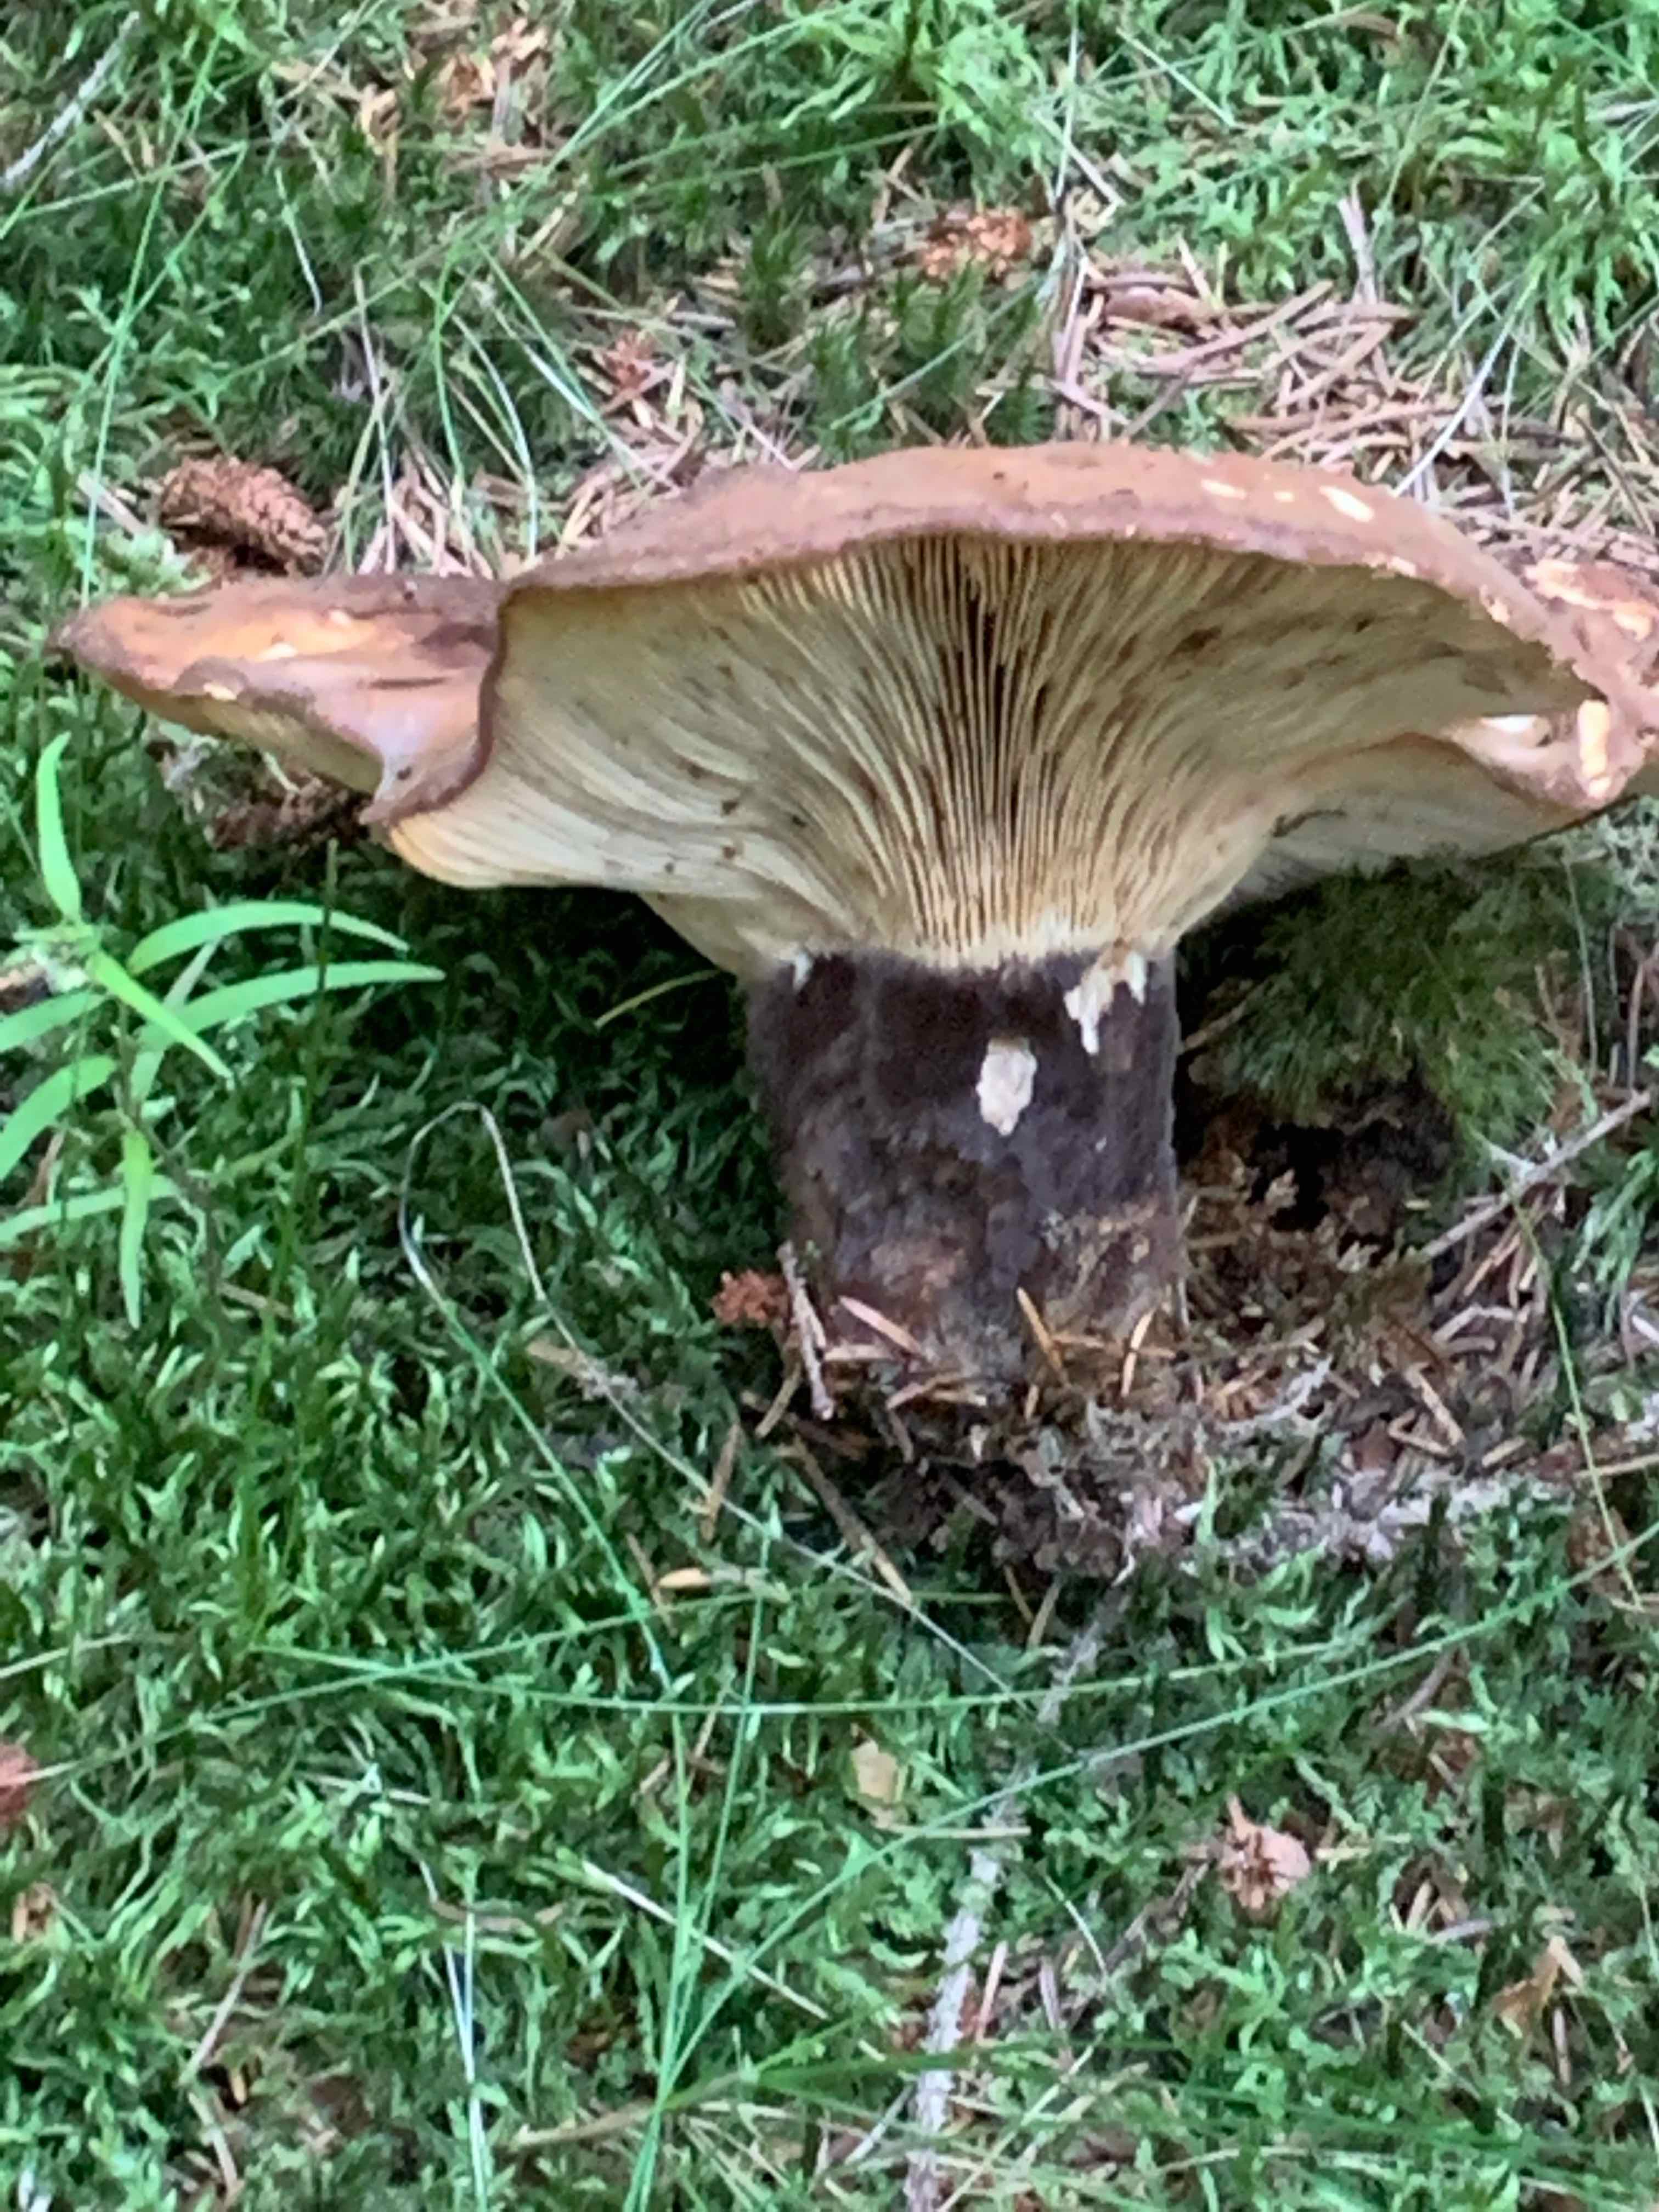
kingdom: Fungi
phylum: Basidiomycota
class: Agaricomycetes
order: Boletales
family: Tapinellaceae
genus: Tapinella
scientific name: Tapinella atrotomentosa
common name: sortfiltet viftesvamp
